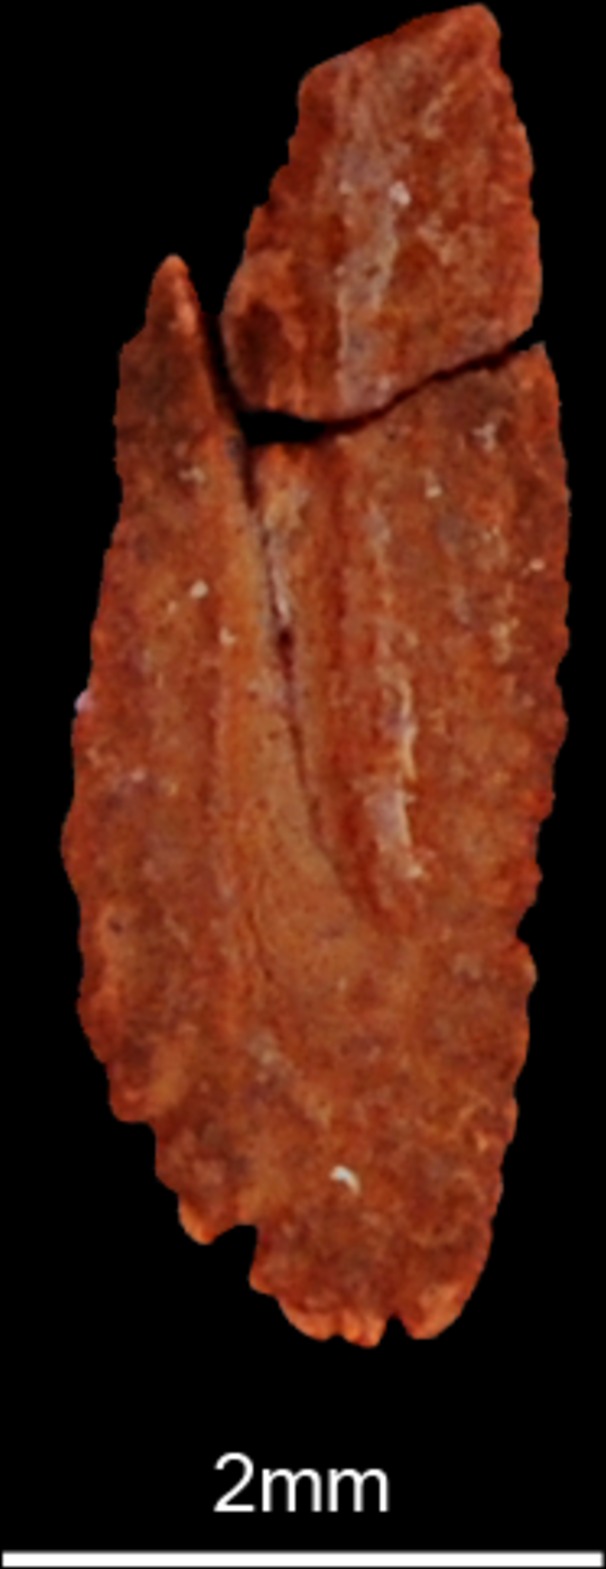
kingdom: Animalia
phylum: Chordata
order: Perciformes
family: Carangidae
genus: Caranx
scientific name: Caranx
